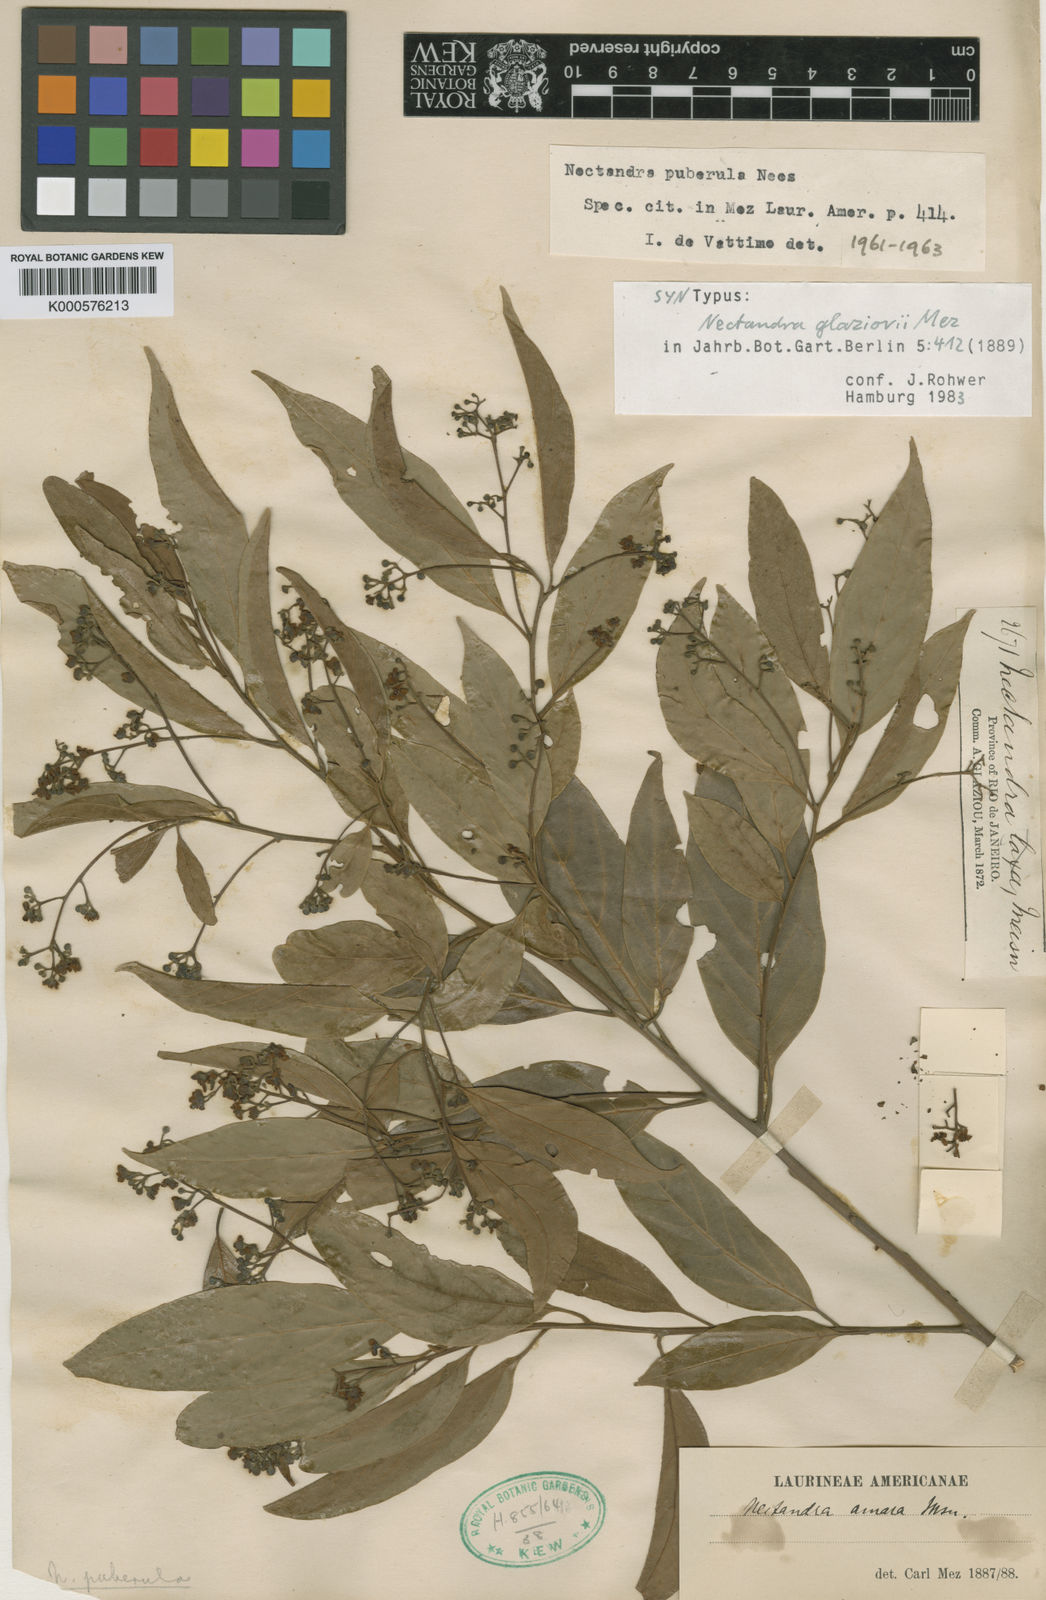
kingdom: Plantae
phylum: Tracheophyta
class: Magnoliopsida
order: Laurales
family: Lauraceae
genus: Nectandra
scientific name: Nectandra puberula
